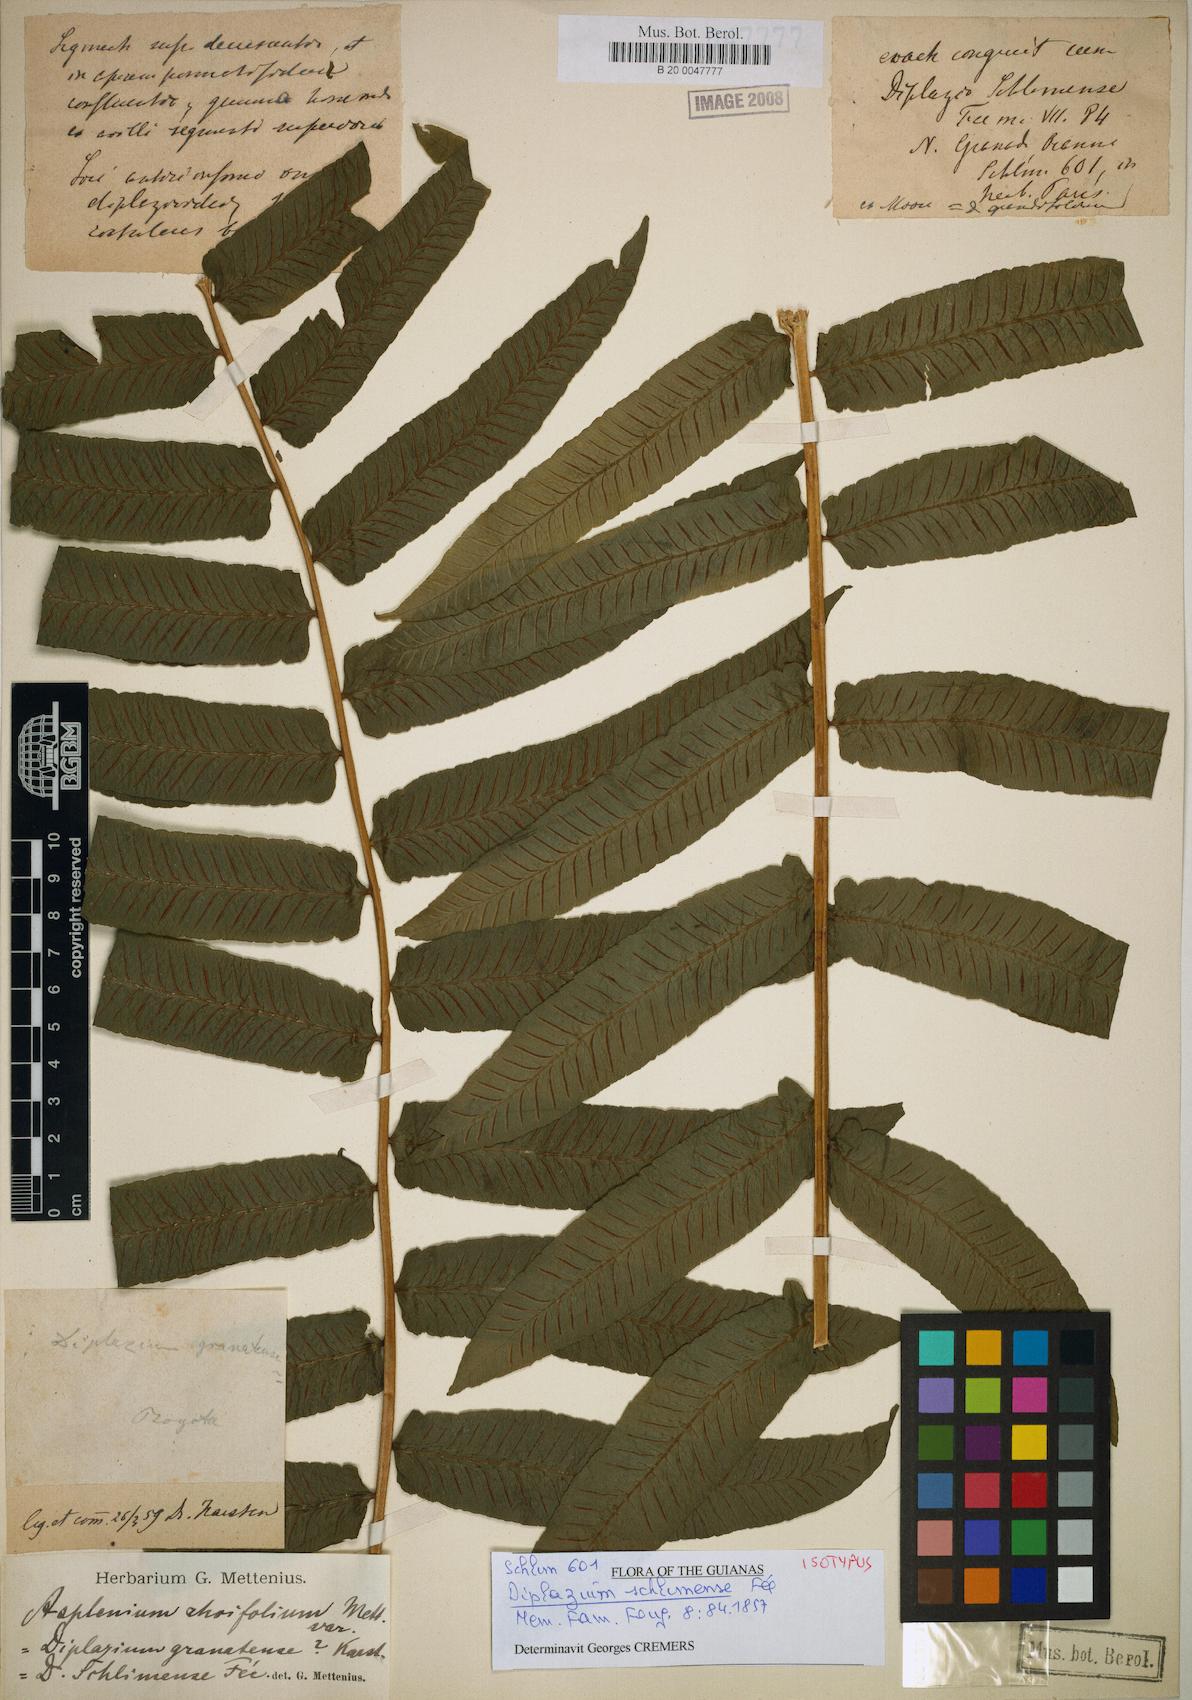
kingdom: Plantae
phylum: Tracheophyta
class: Polypodiopsida
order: Polypodiales
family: Athyriaceae
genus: Diplazium
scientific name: Diplazium rhoifolium
